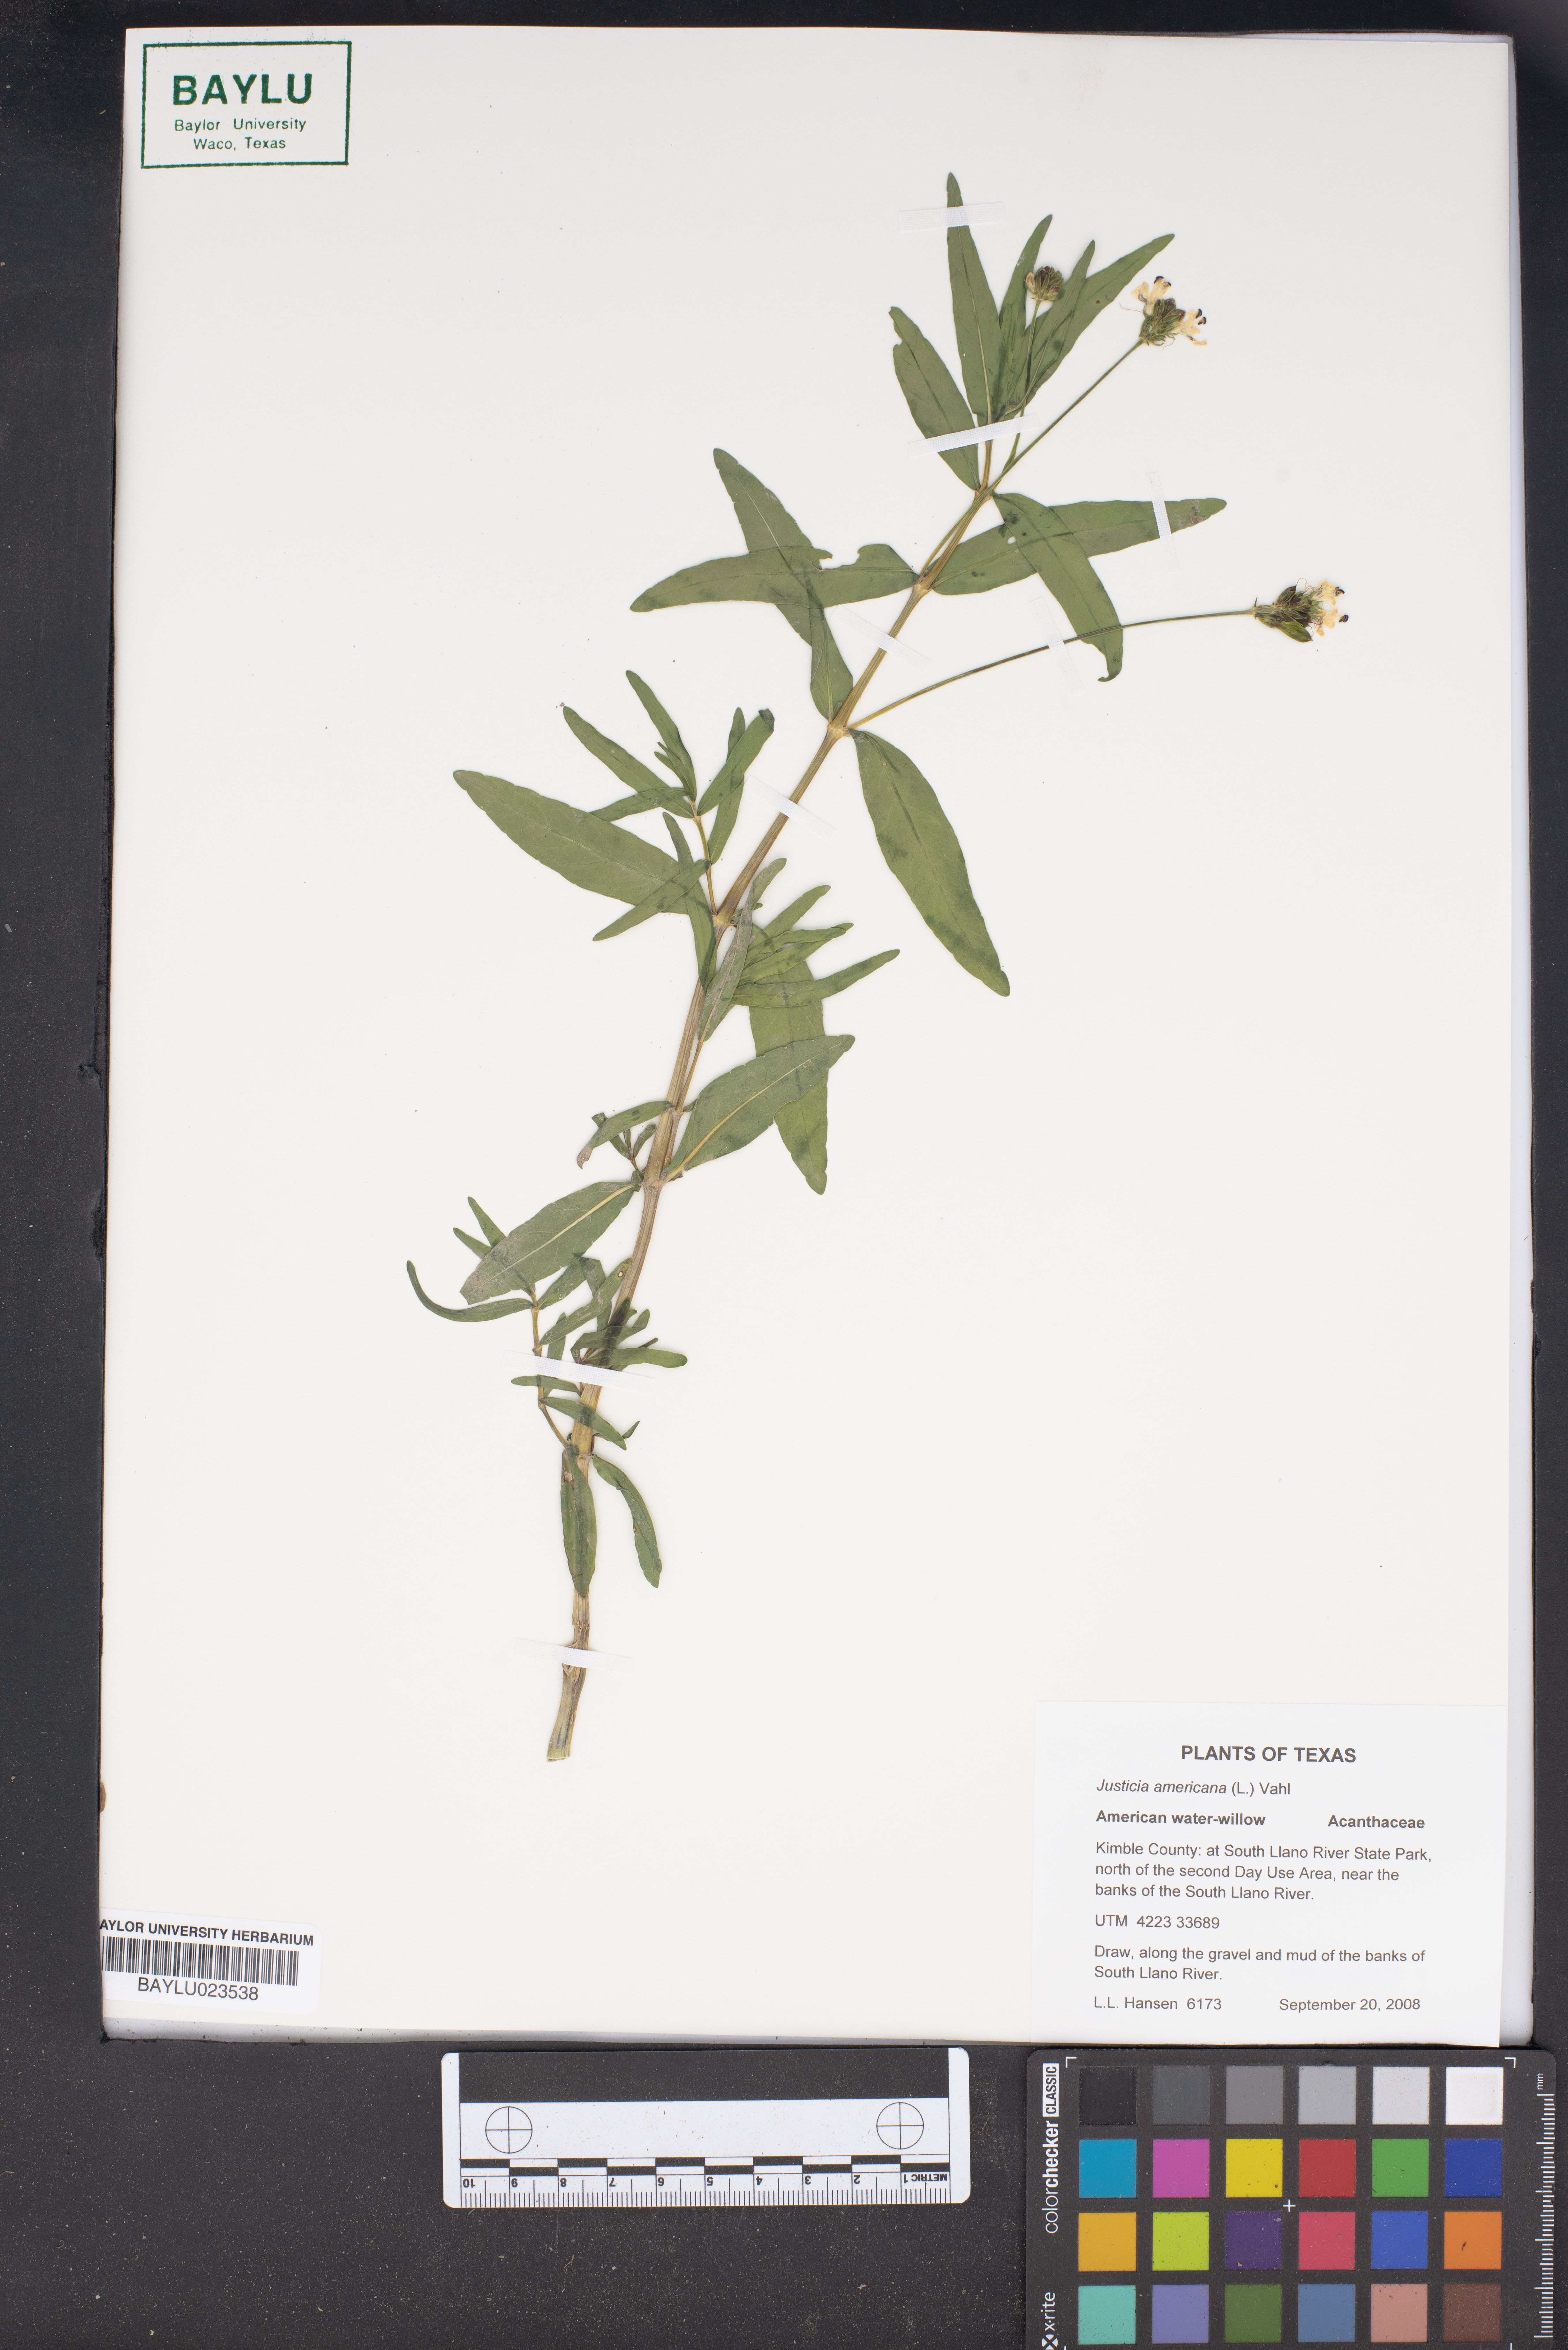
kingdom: Plantae
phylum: Tracheophyta
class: Magnoliopsida
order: Lamiales
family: Acanthaceae
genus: Dianthera
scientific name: Dianthera americana
